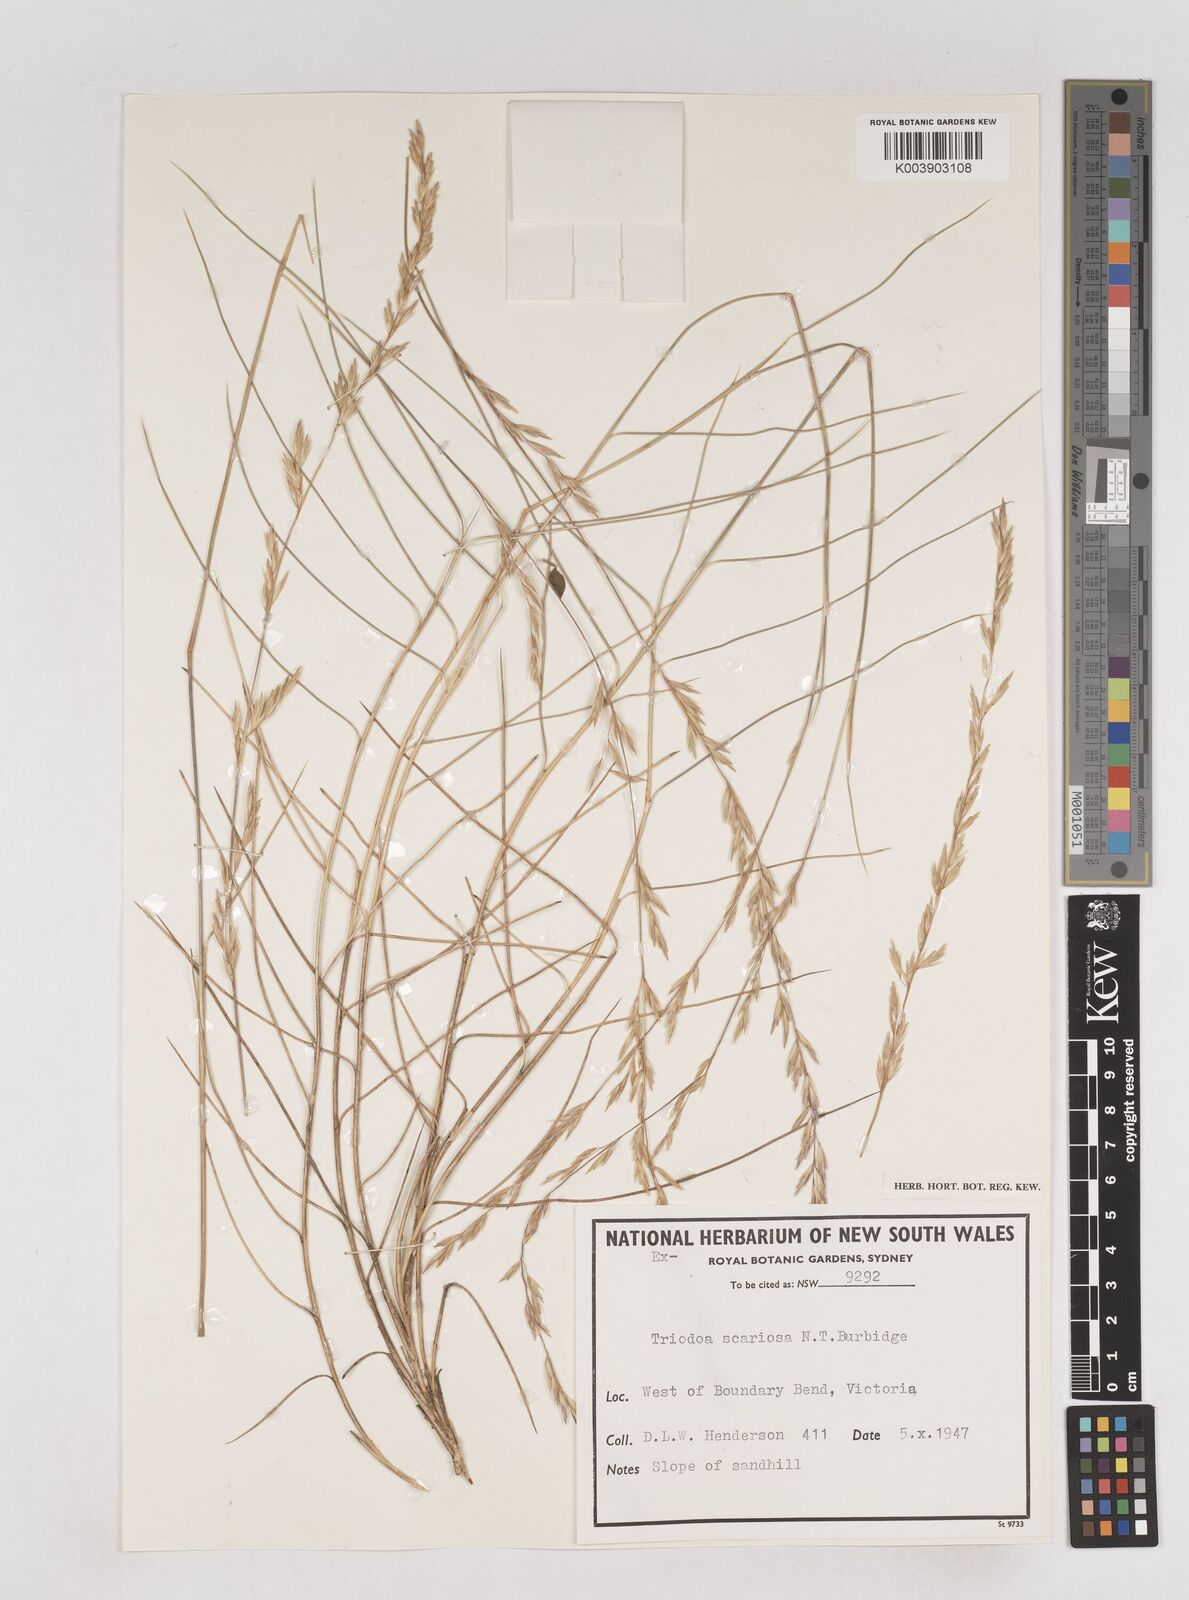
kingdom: Plantae
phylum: Tracheophyta
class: Liliopsida
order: Poales
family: Poaceae
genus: Triodia
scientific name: Triodia scariosa
